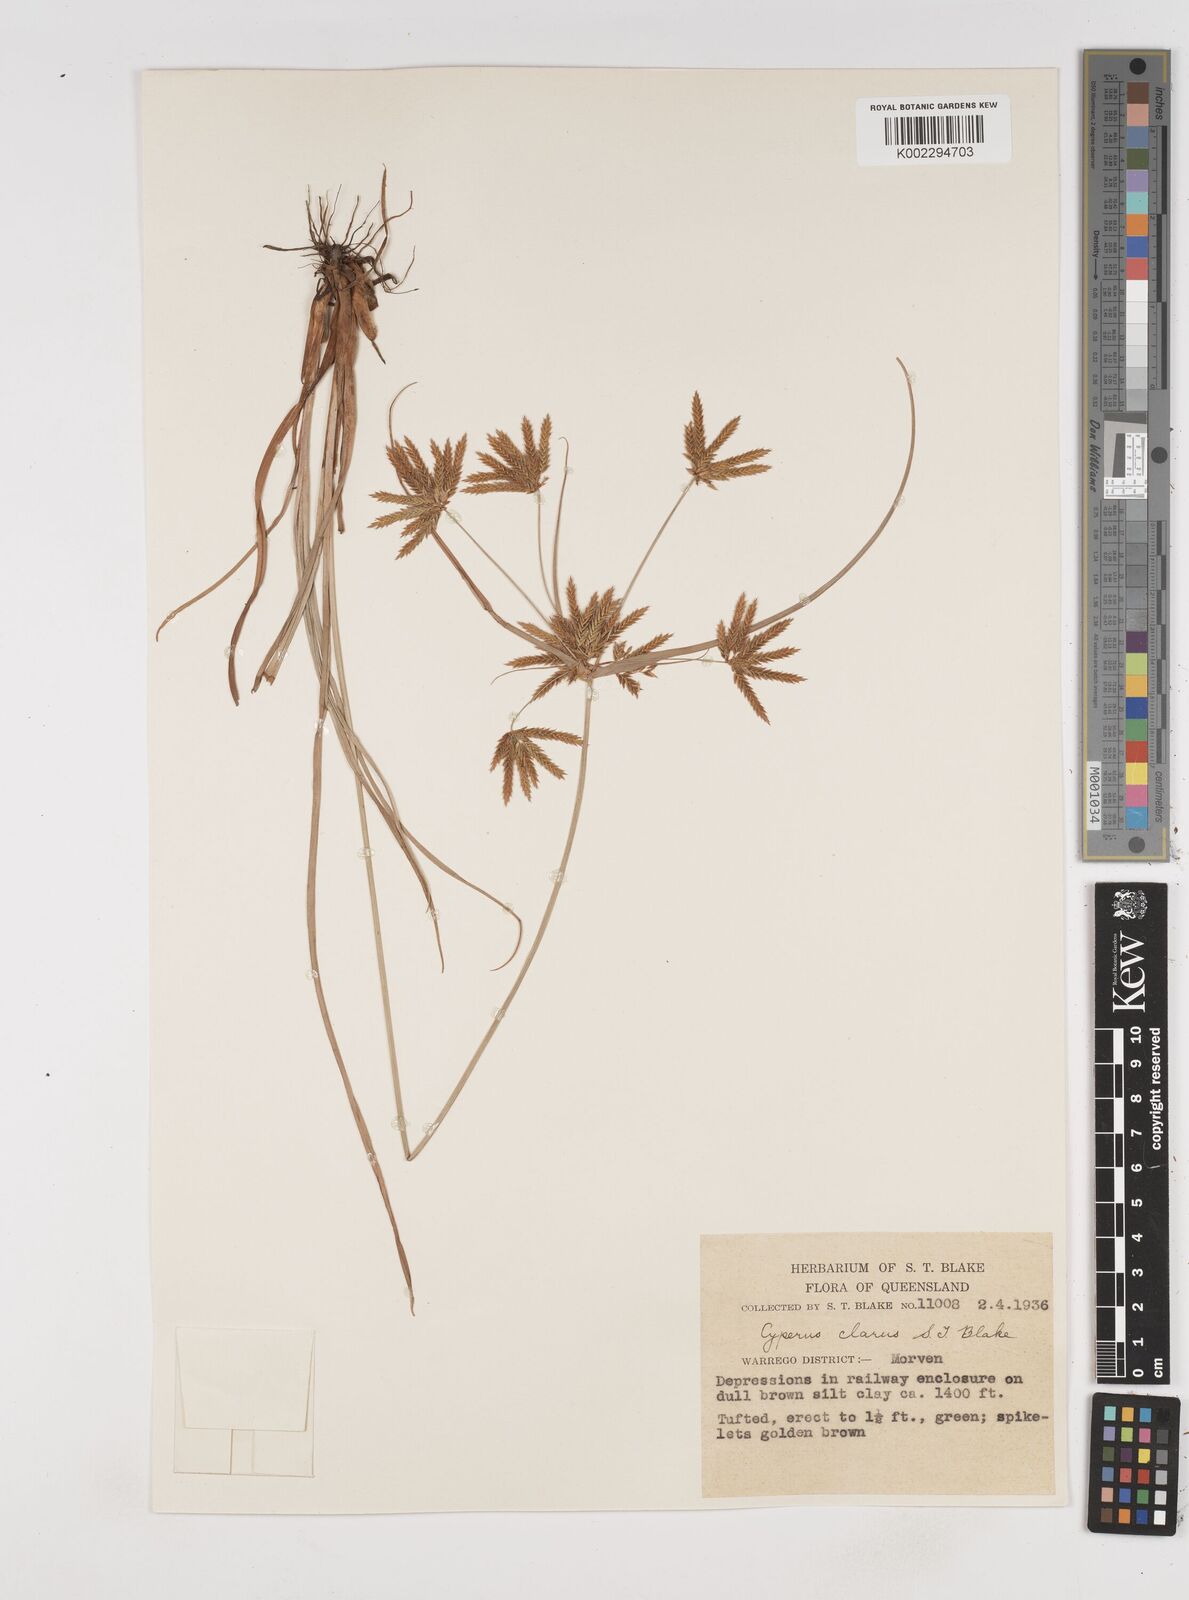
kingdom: Plantae
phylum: Tracheophyta
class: Liliopsida
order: Poales
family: Cyperaceae
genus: Cyperus
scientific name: Cyperus clarus
